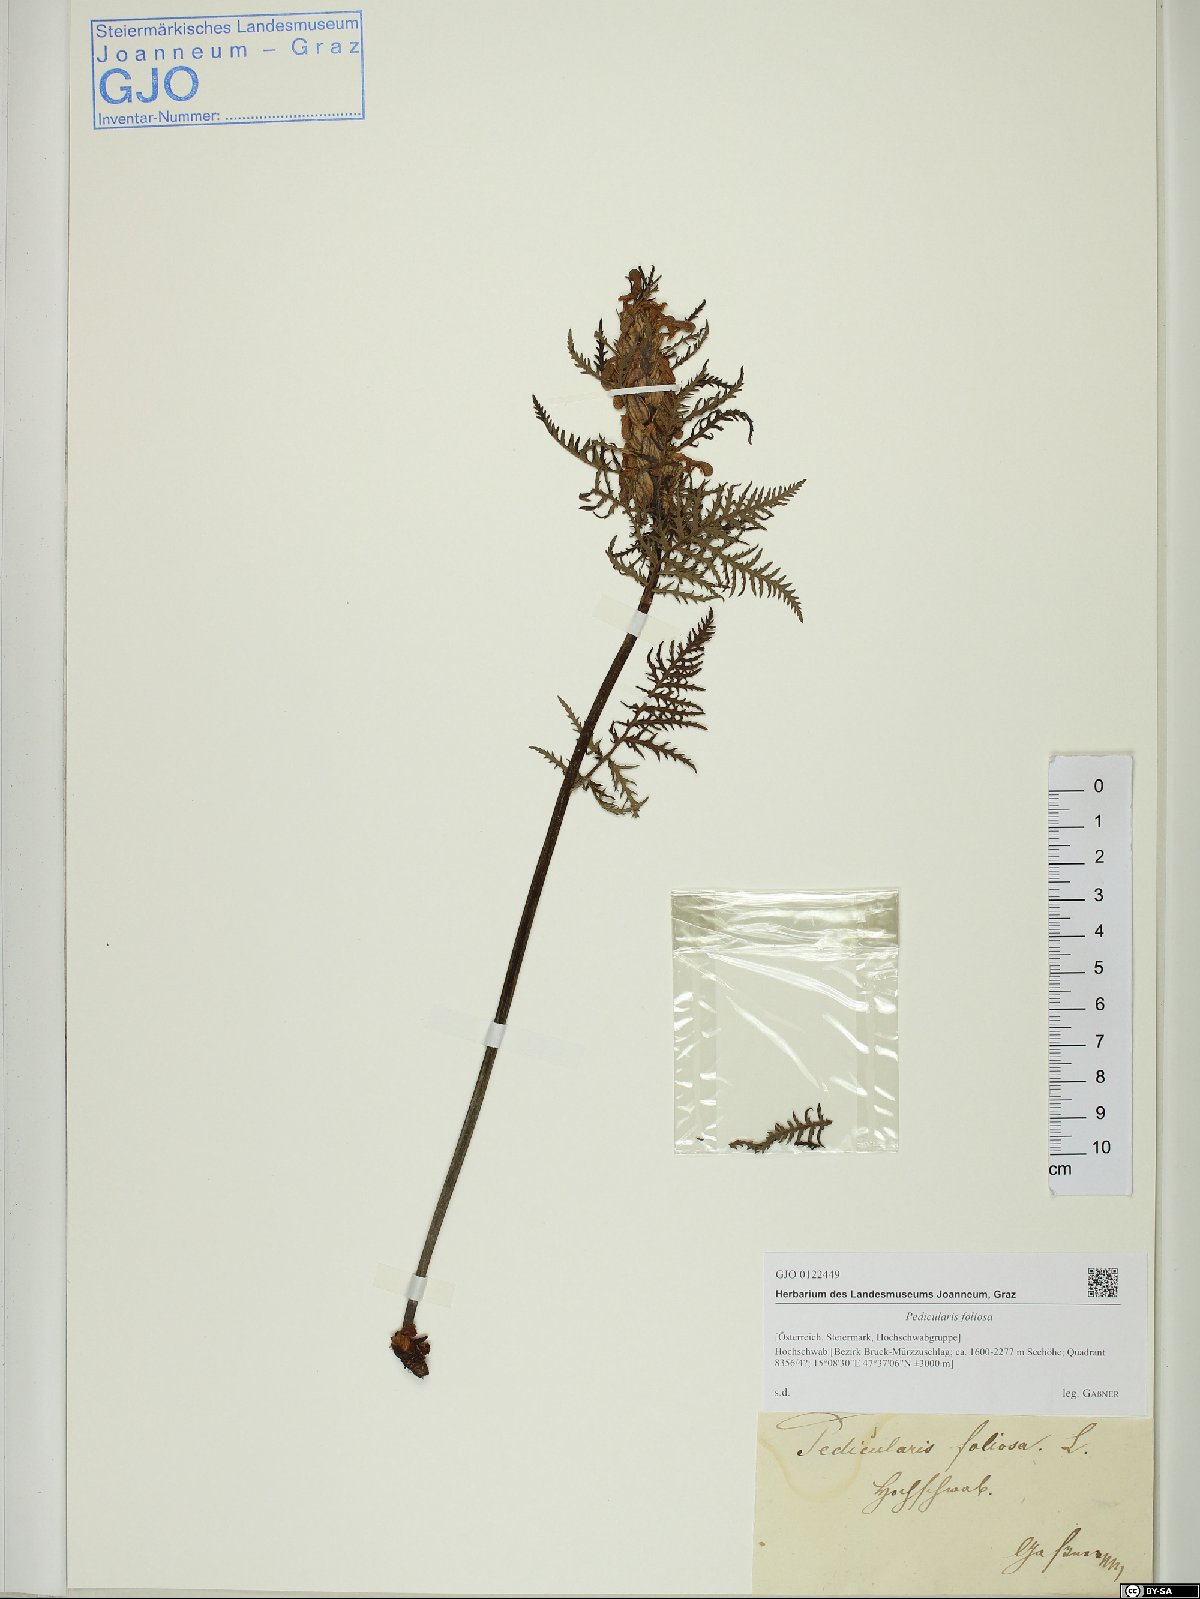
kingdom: Plantae
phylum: Tracheophyta
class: Magnoliopsida
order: Lamiales
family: Orobanchaceae
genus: Pedicularis
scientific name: Pedicularis foliosa
